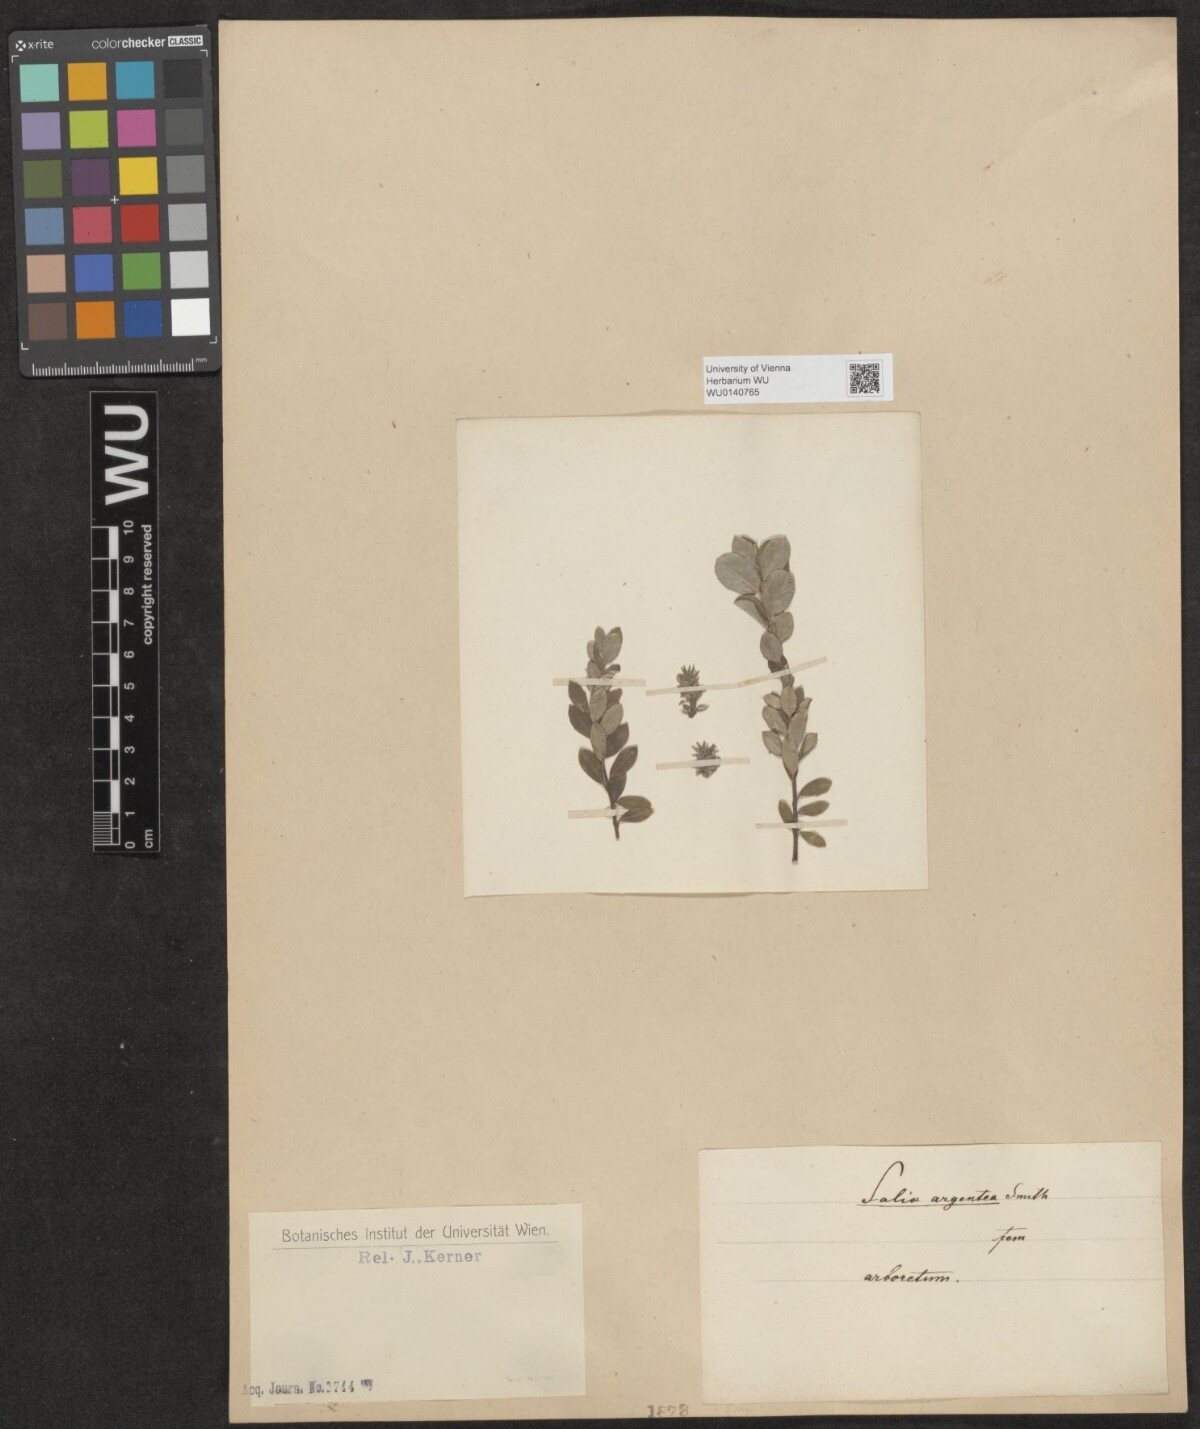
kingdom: Plantae
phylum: Tracheophyta
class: Magnoliopsida
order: Malpighiales
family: Salicaceae
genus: Salix
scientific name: Salix
